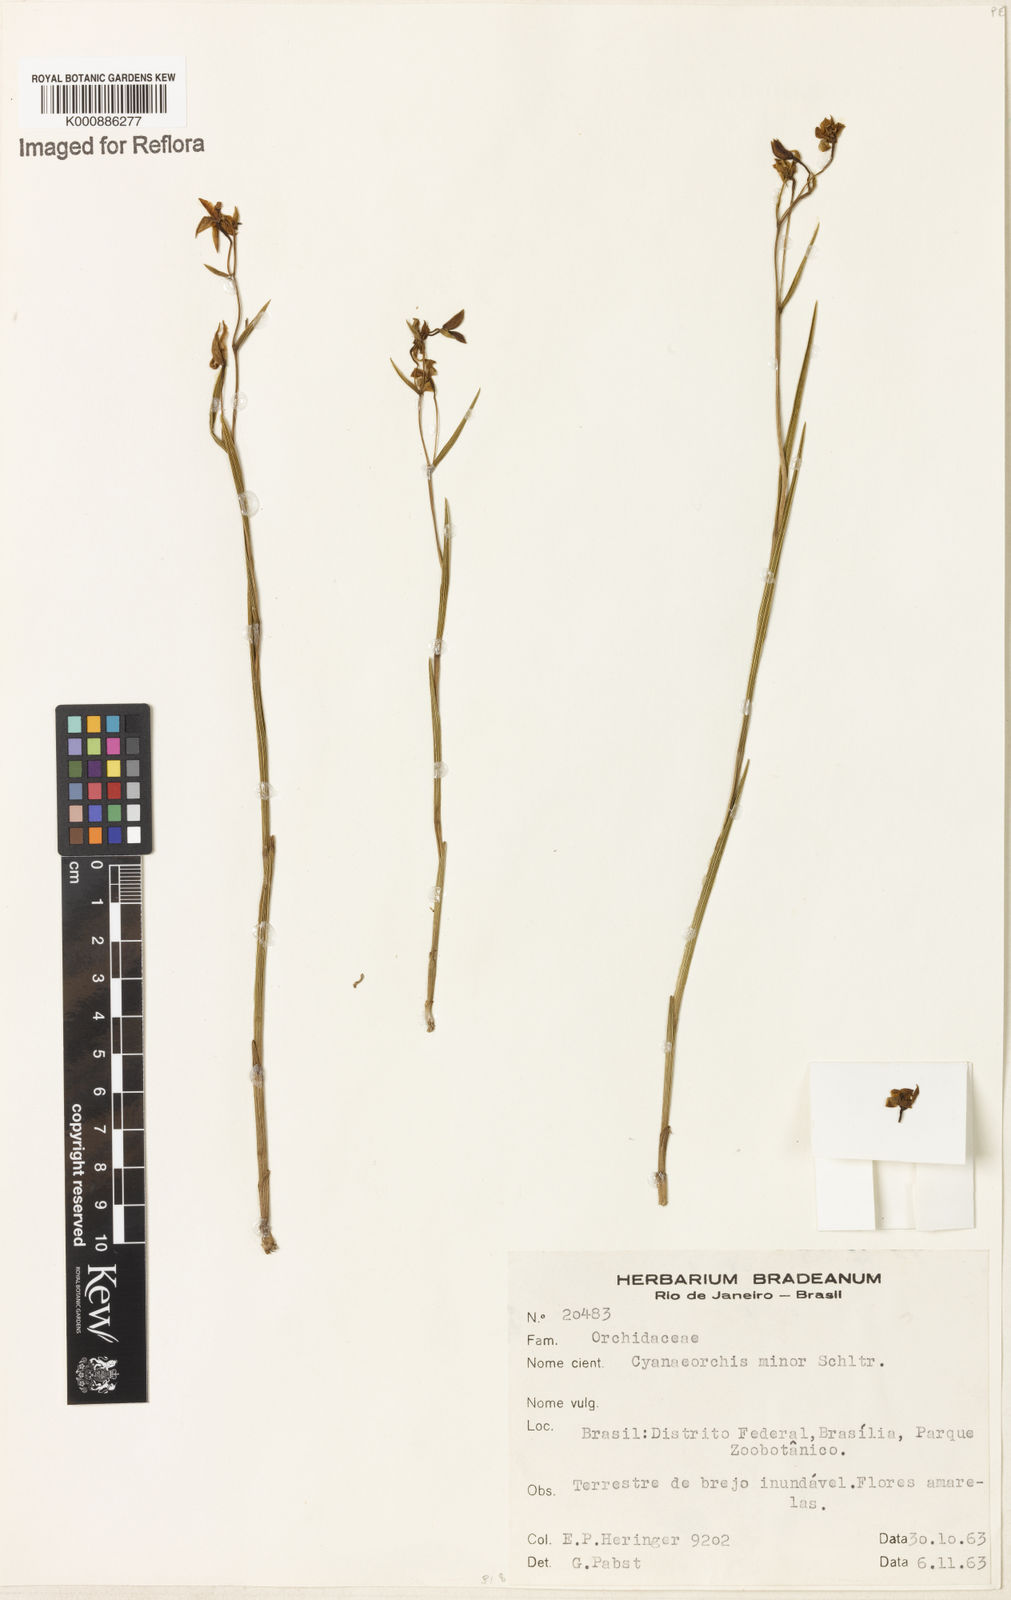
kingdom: Plantae
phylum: Tracheophyta
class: Liliopsida
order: Asparagales
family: Orchidaceae
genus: Cyanaeorchis
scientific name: Cyanaeorchis minor
